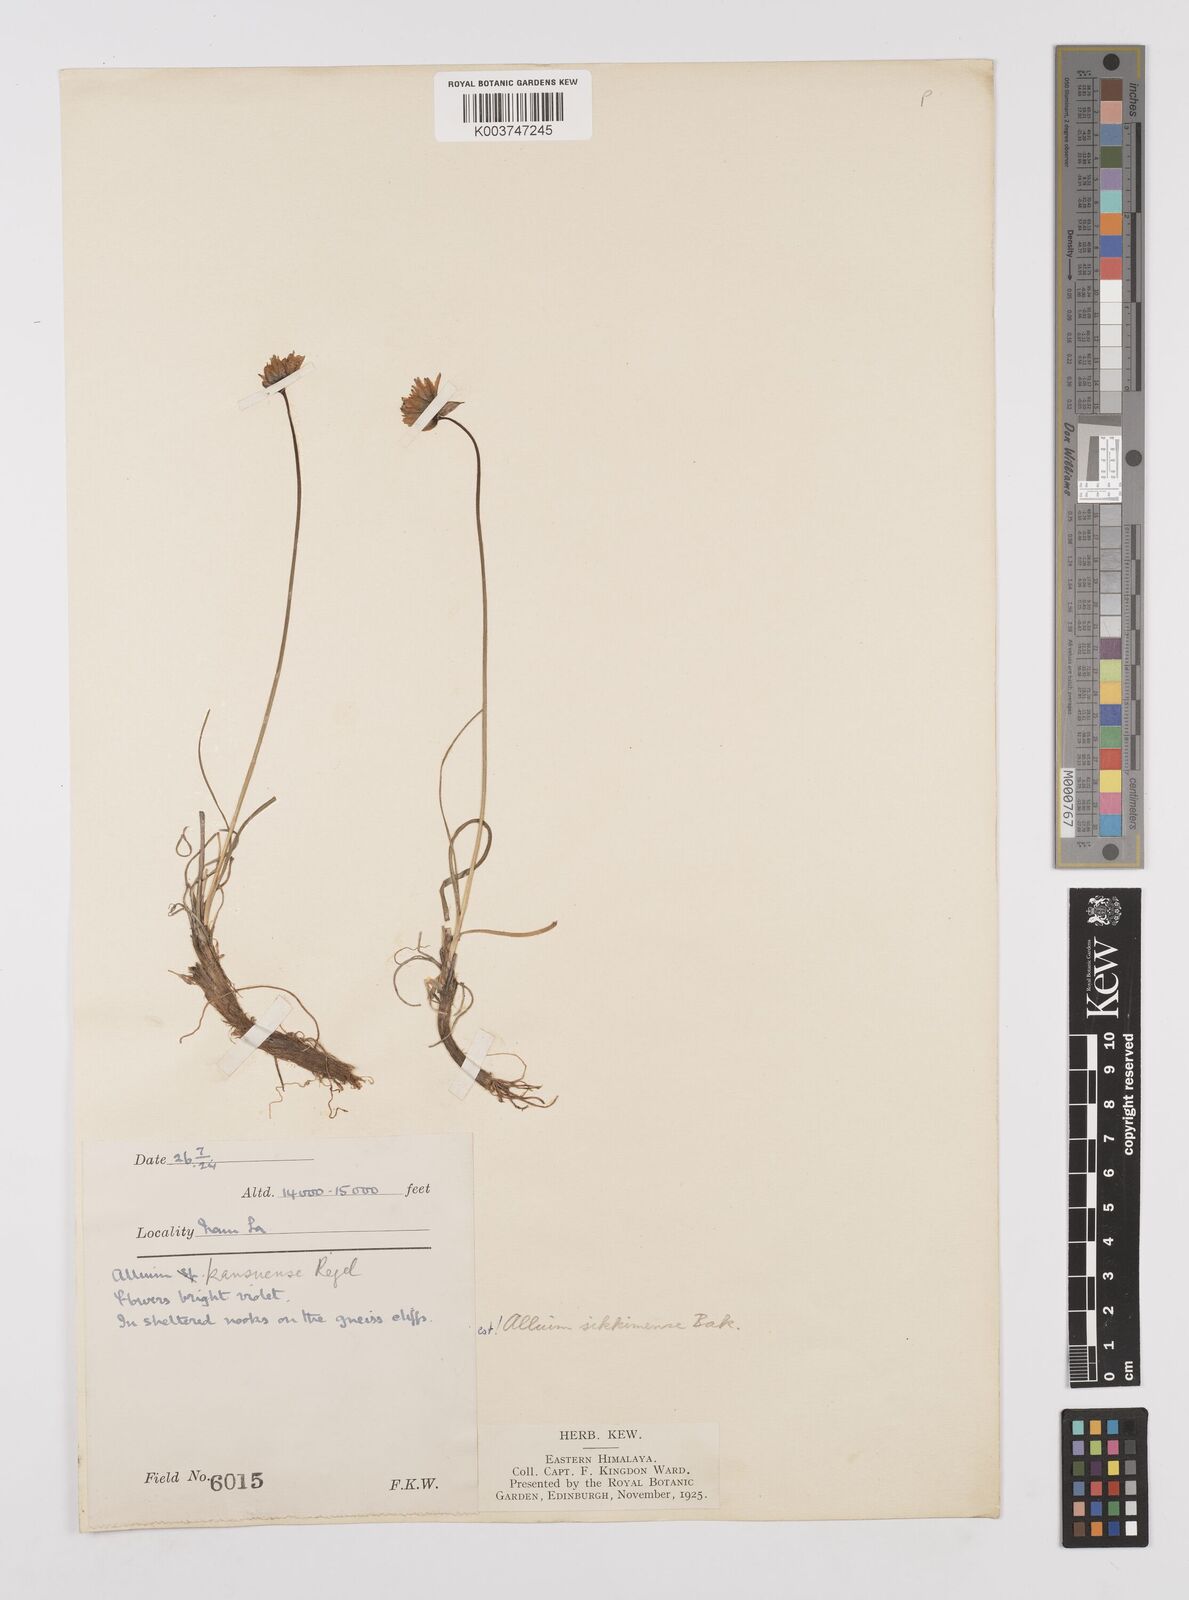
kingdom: Plantae
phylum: Tracheophyta
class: Liliopsida
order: Asparagales
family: Amaryllidaceae
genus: Allium
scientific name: Allium sikkimense
